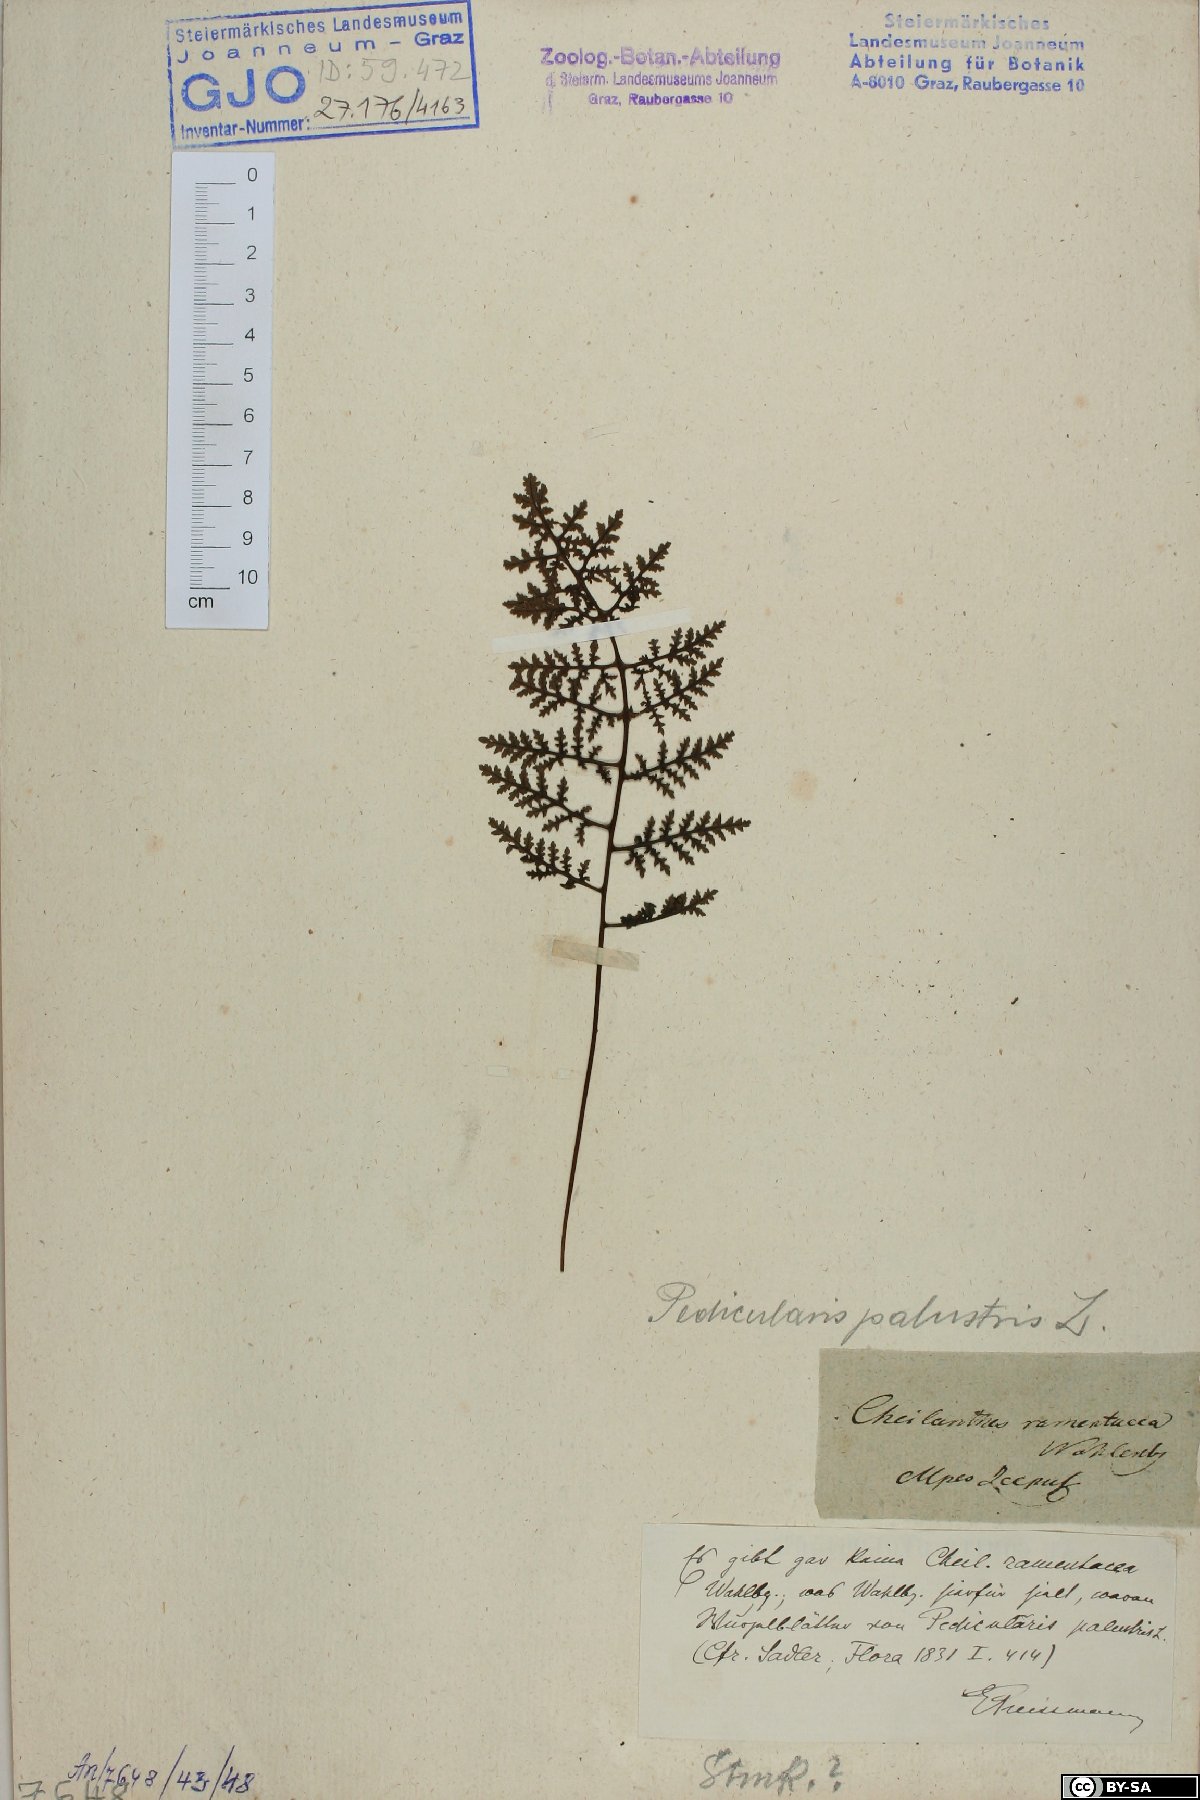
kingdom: Plantae
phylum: Tracheophyta
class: Magnoliopsida
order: Lamiales
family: Orobanchaceae
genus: Pedicularis
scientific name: Pedicularis palustris
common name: Marsh lousewort
